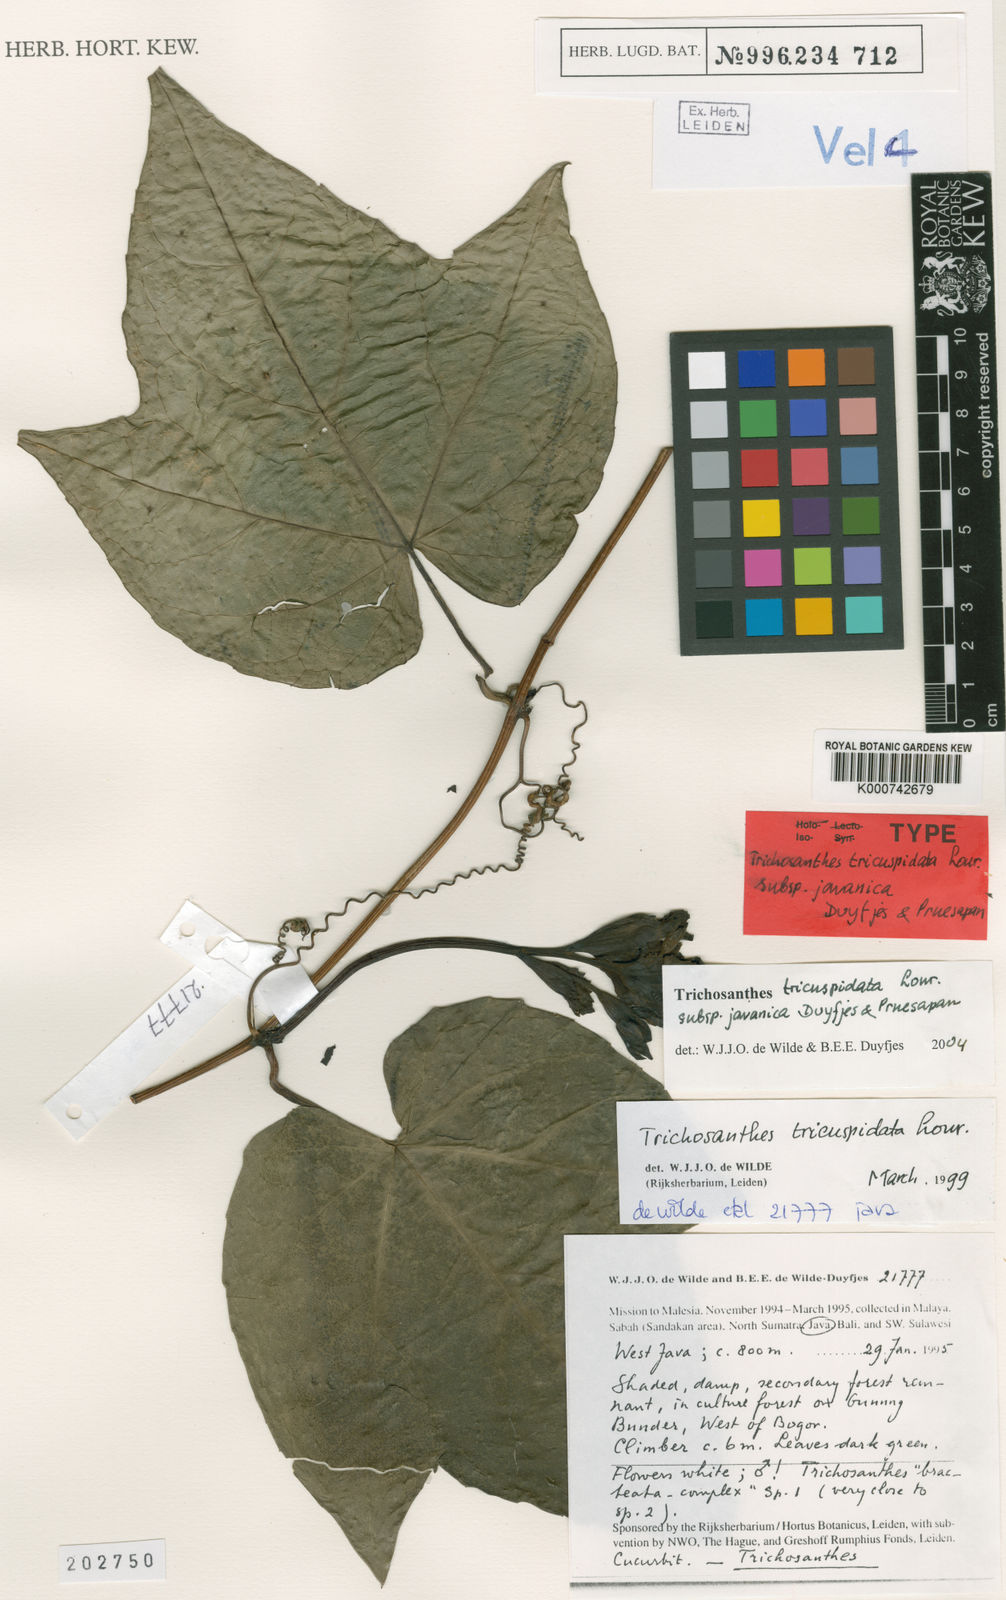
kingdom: Plantae
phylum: Tracheophyta
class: Magnoliopsida
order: Cucurbitales
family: Cucurbitaceae
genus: Trichosanthes
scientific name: Trichosanthes tricuspidata
